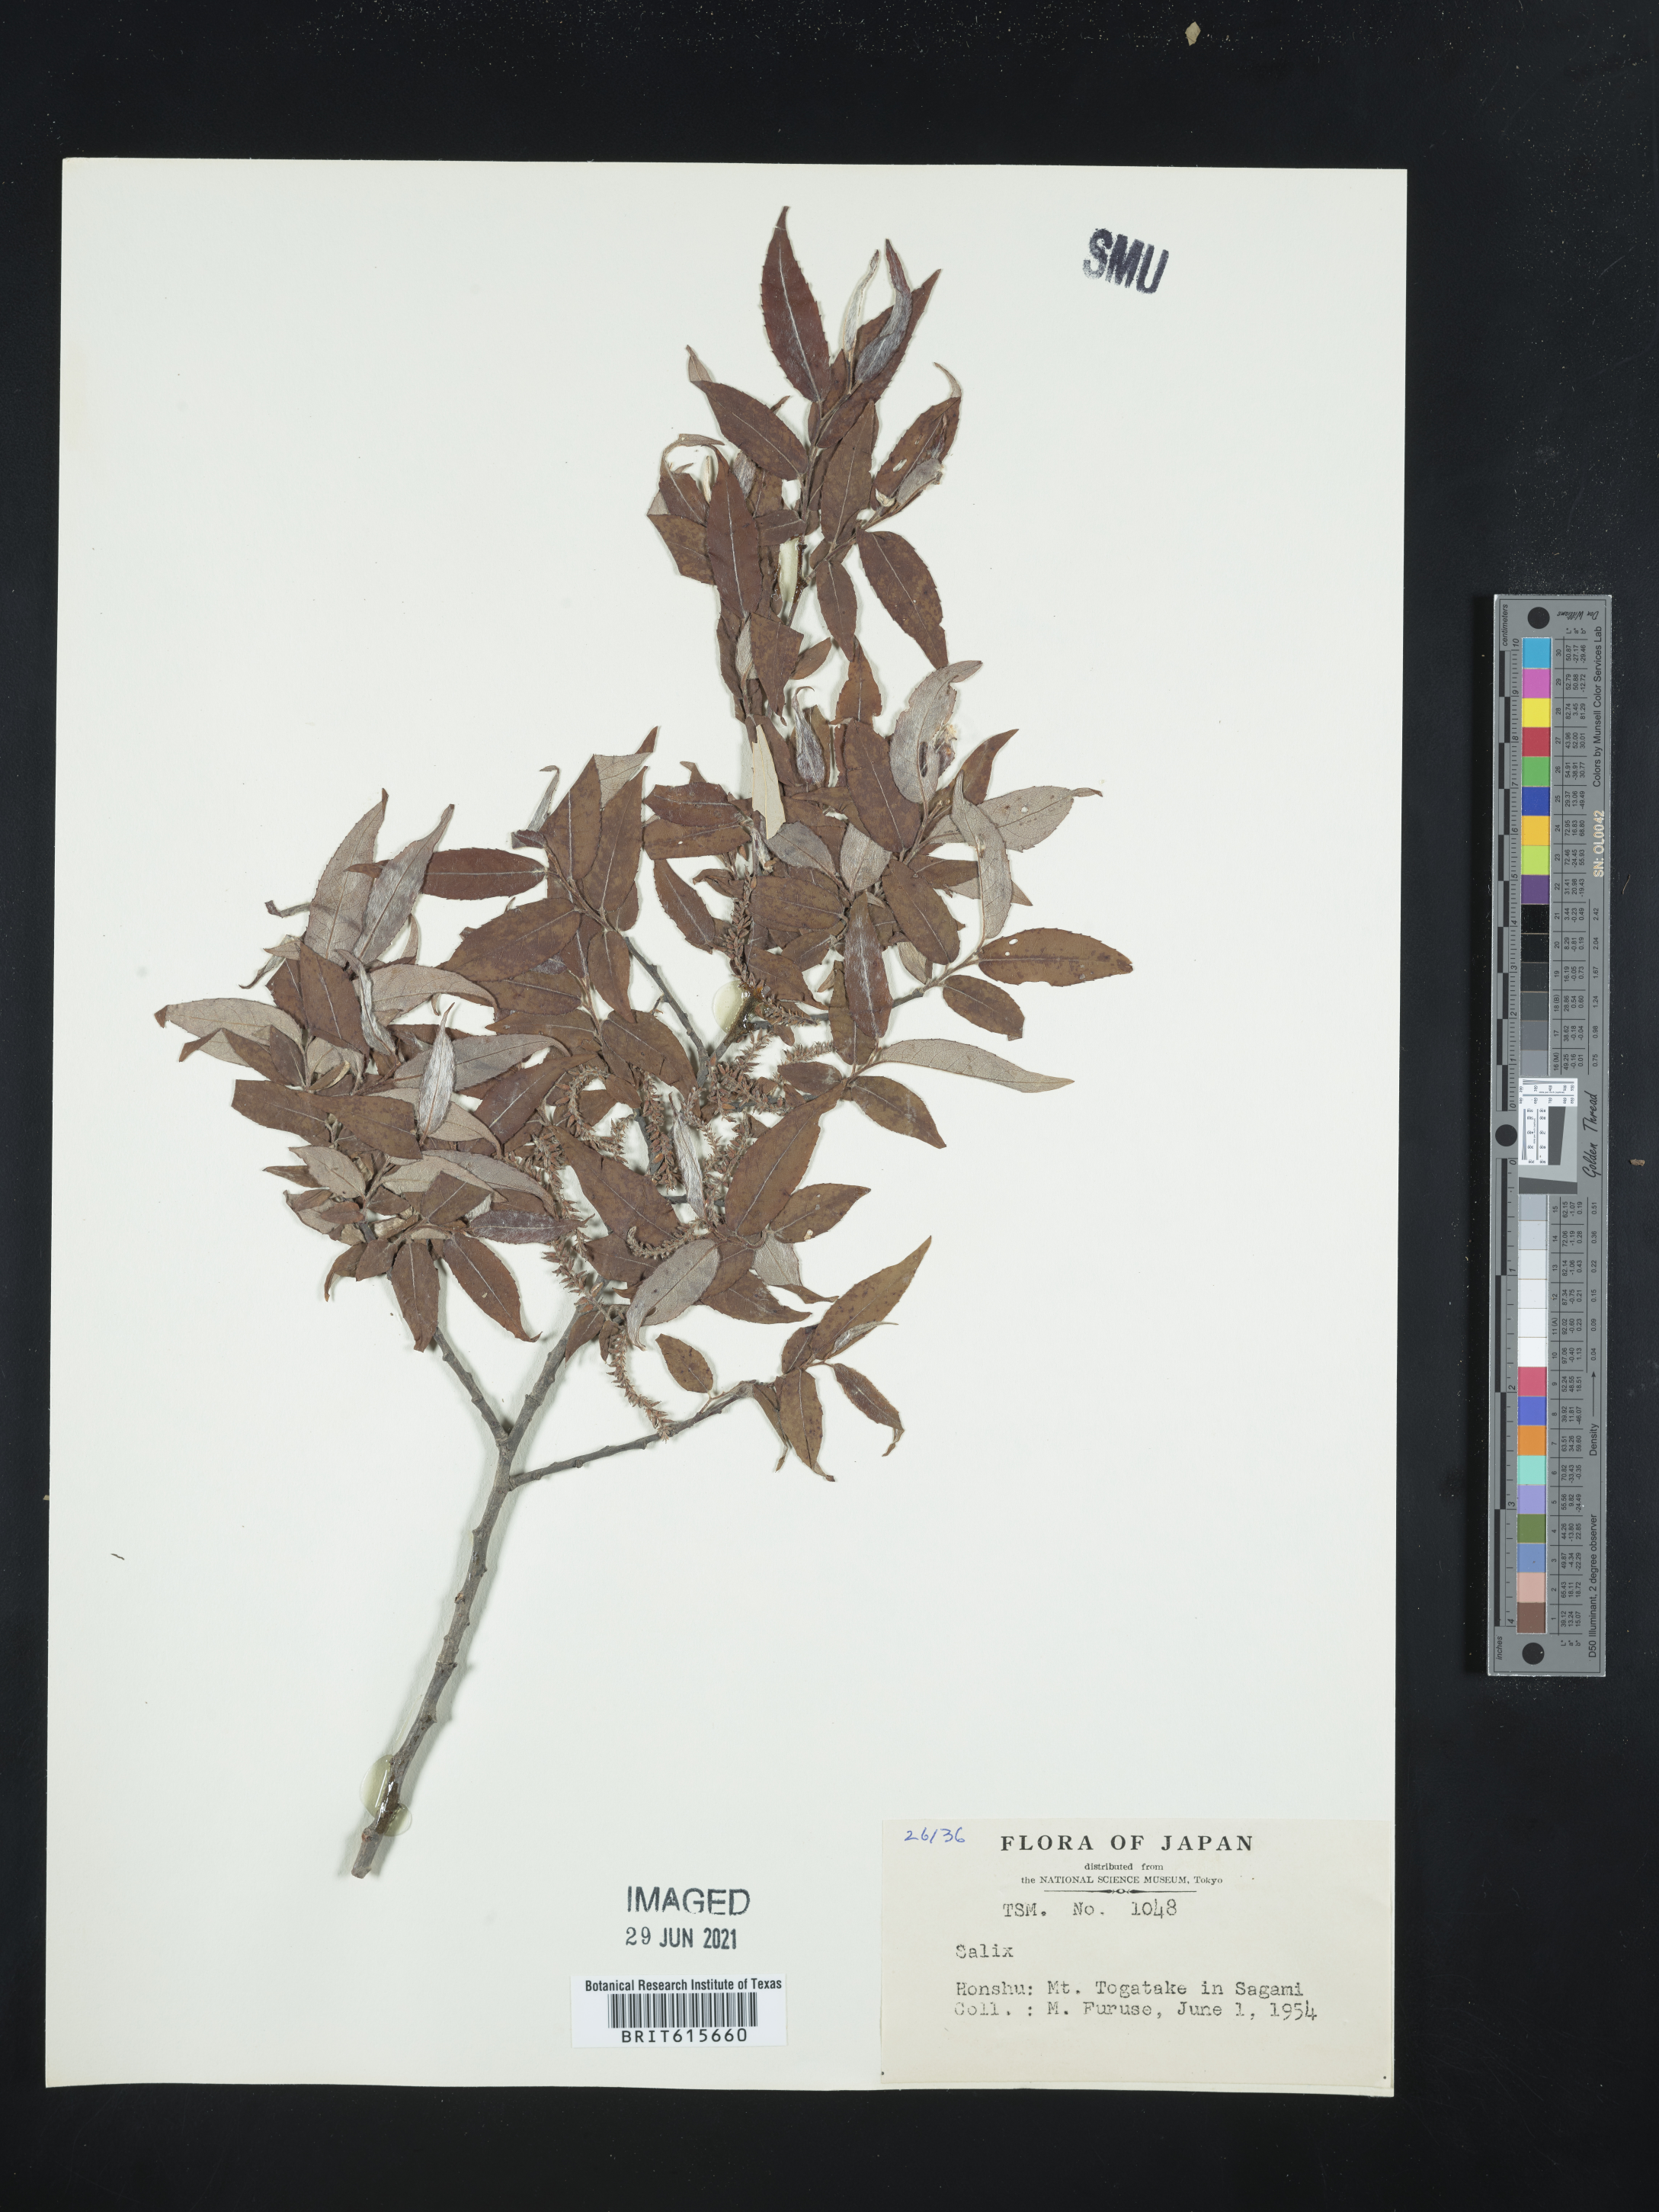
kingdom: Plantae
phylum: Tracheophyta
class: Magnoliopsida
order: Malpighiales
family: Salicaceae
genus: Salix
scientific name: Salix
